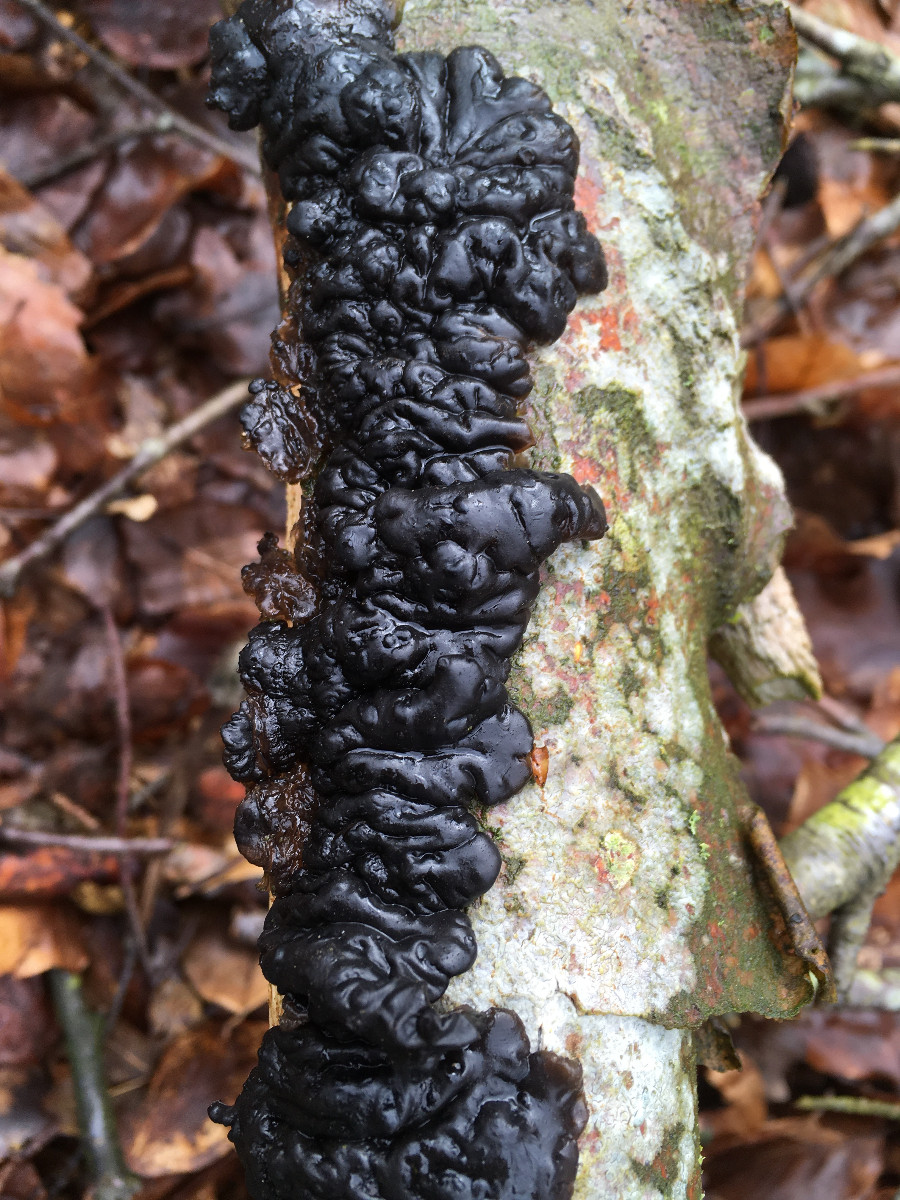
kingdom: Fungi
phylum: Basidiomycota
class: Agaricomycetes
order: Auriculariales
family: Auriculariaceae
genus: Exidia
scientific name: Exidia nigricans
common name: almindelig bævretop
